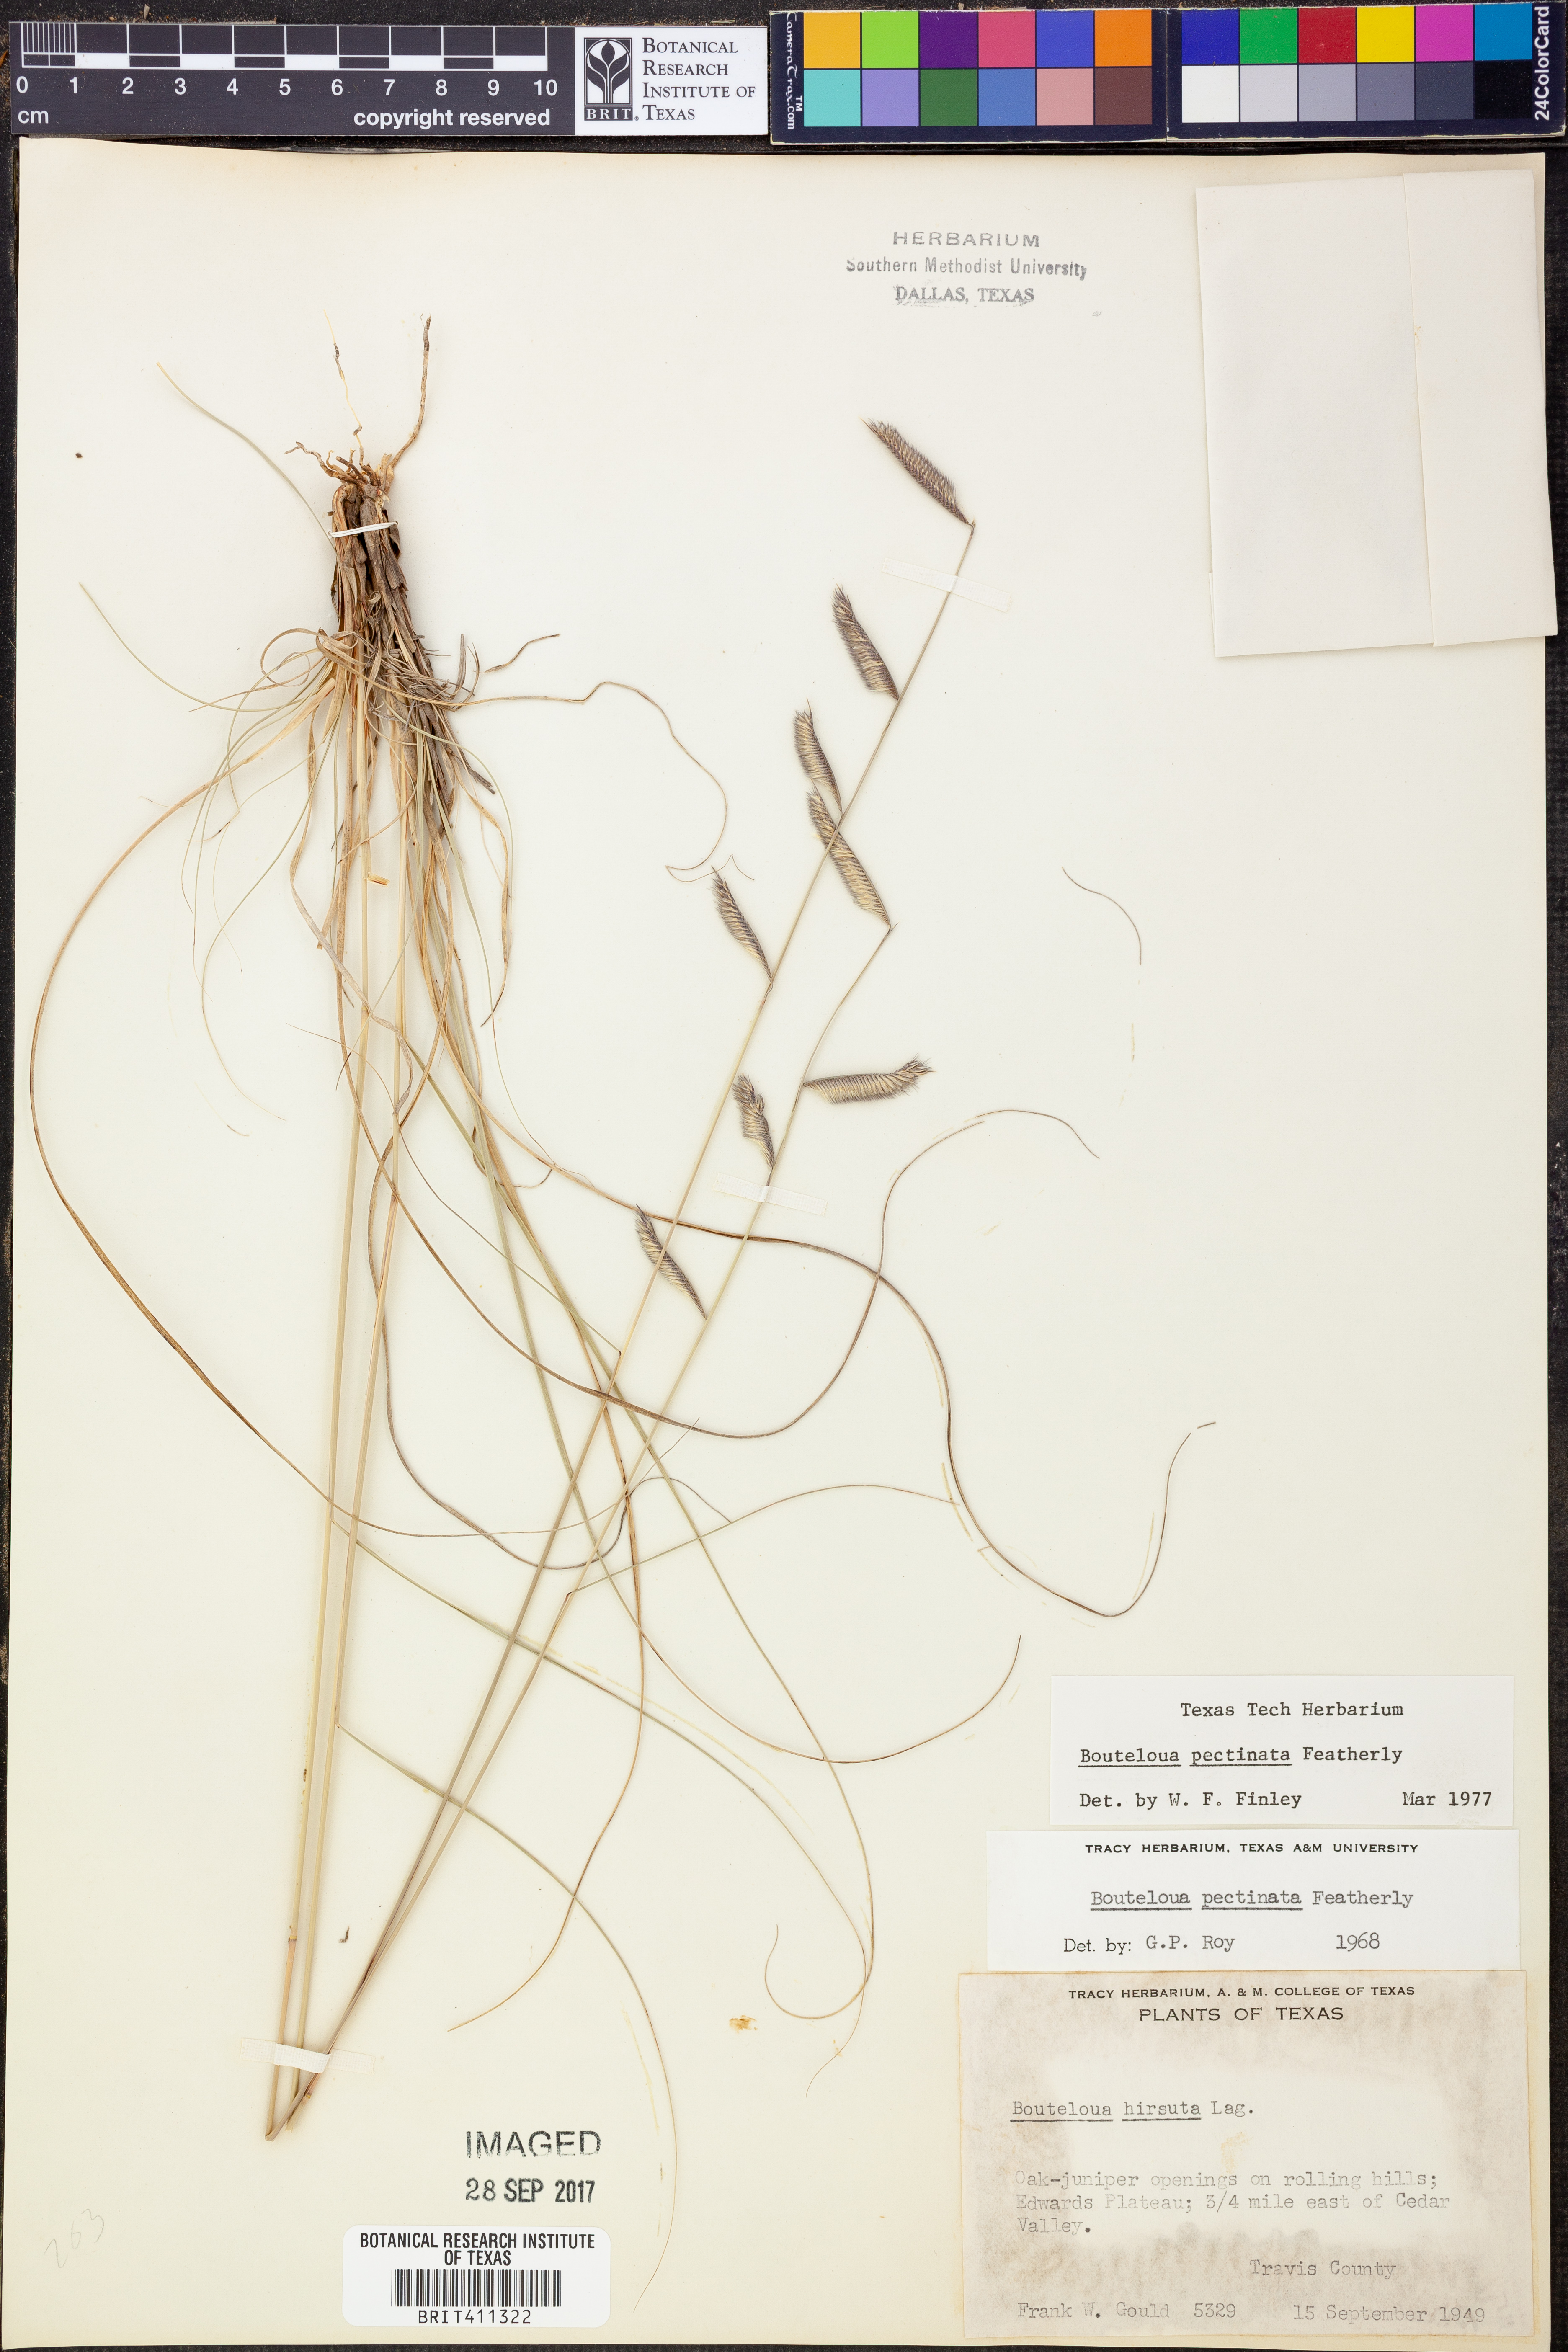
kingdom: Plantae
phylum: Tracheophyta
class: Liliopsida
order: Poales
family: Poaceae
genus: Bouteloua
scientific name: Bouteloua pectinata
